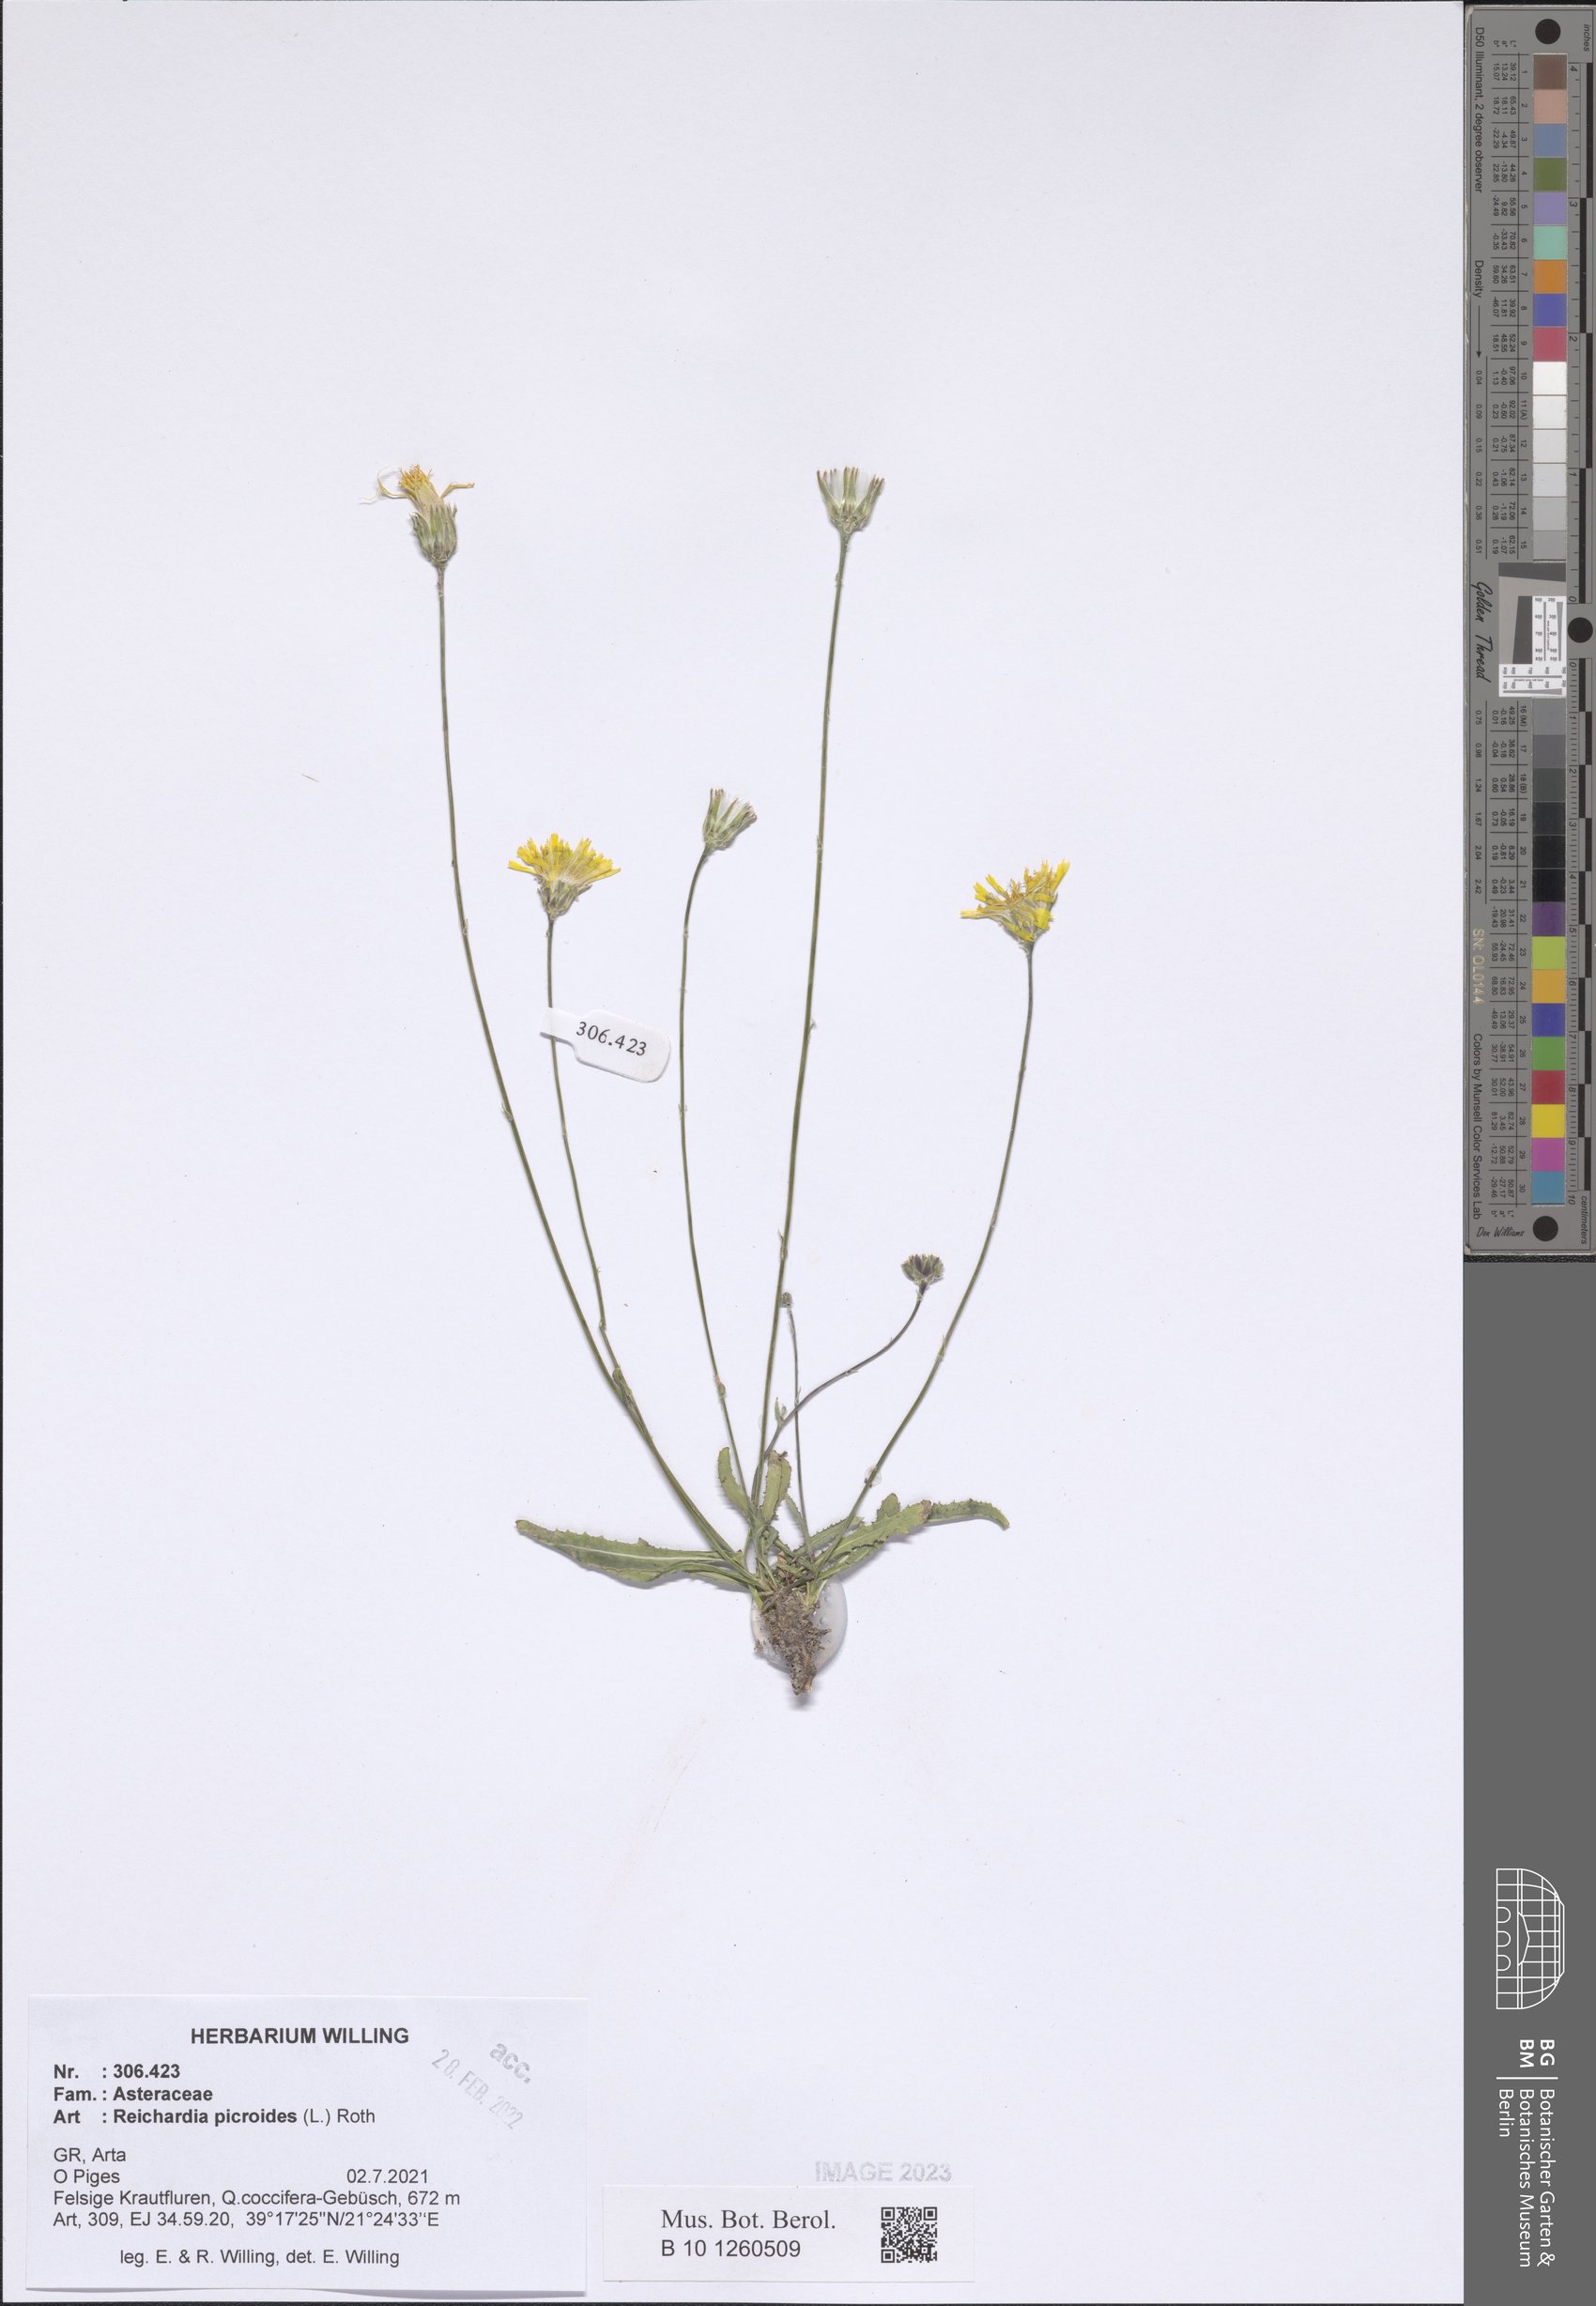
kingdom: Plantae
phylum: Tracheophyta
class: Magnoliopsida
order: Asterales
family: Asteraceae
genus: Reichardia
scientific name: Reichardia picroides
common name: Common brighteyes
